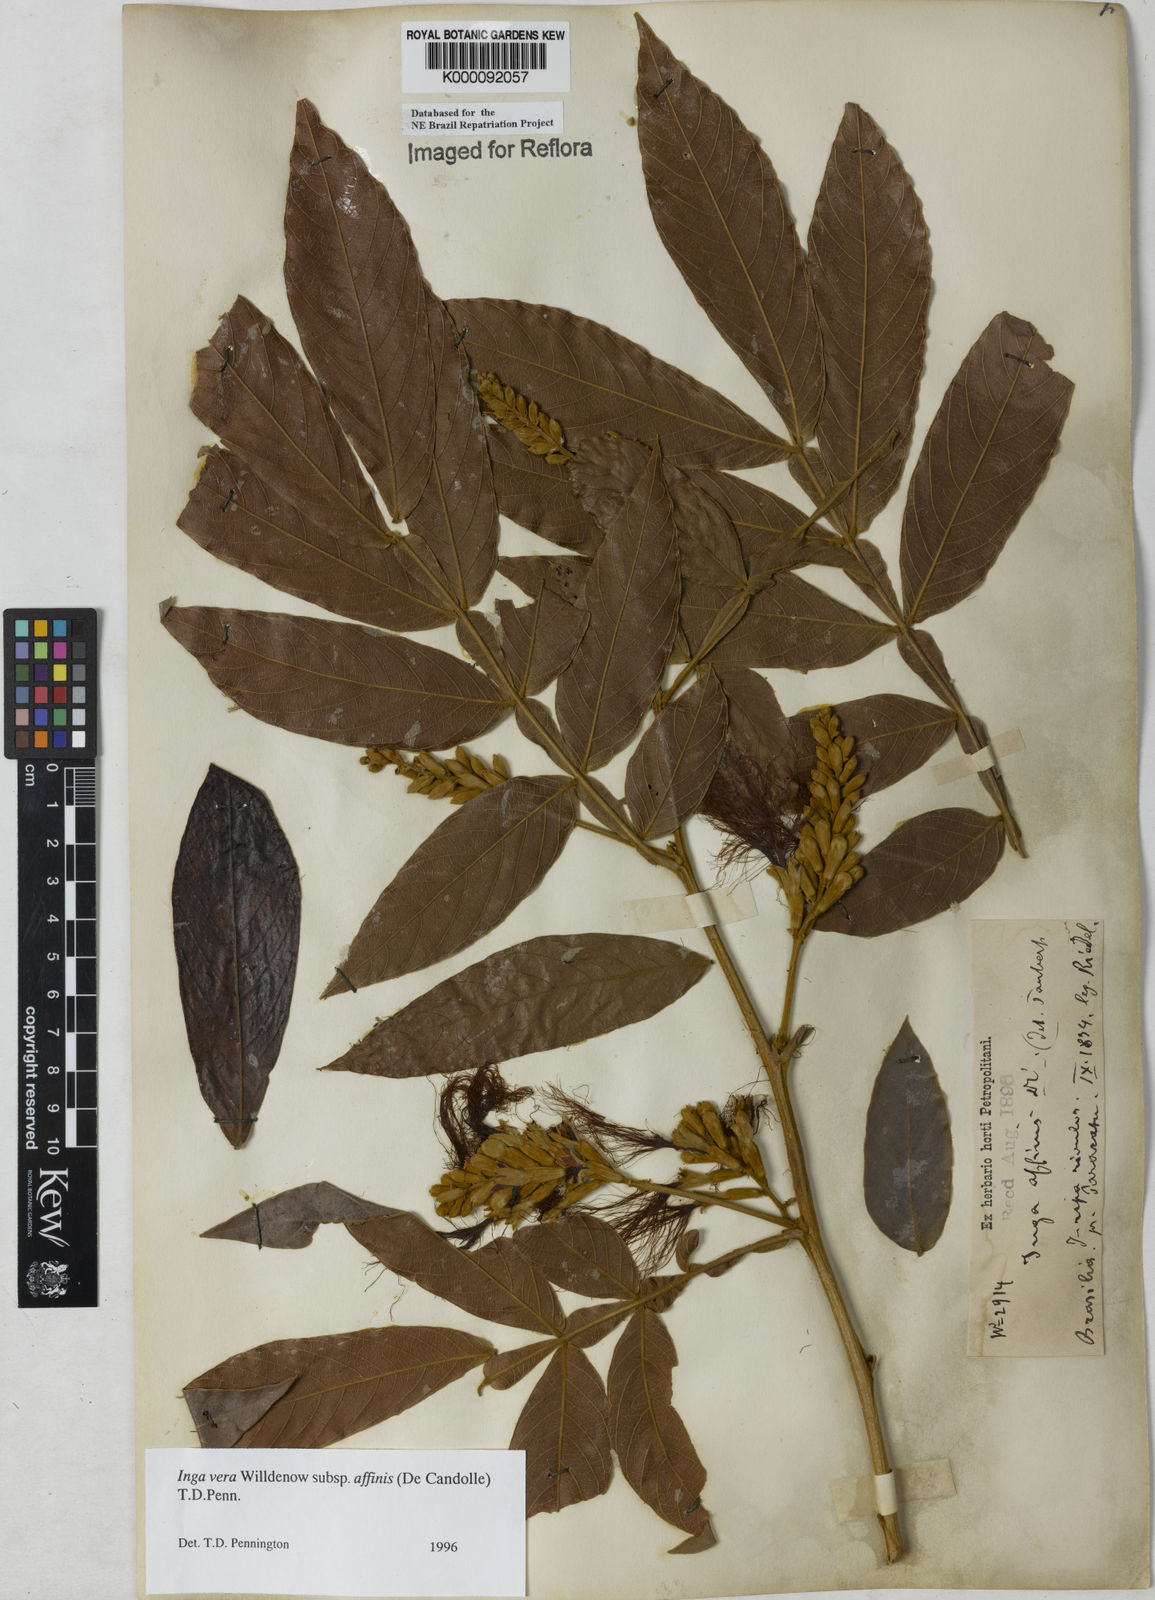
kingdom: Plantae
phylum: Tracheophyta
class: Magnoliopsida
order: Fabales
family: Fabaceae
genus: Inga
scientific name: Inga affinis
